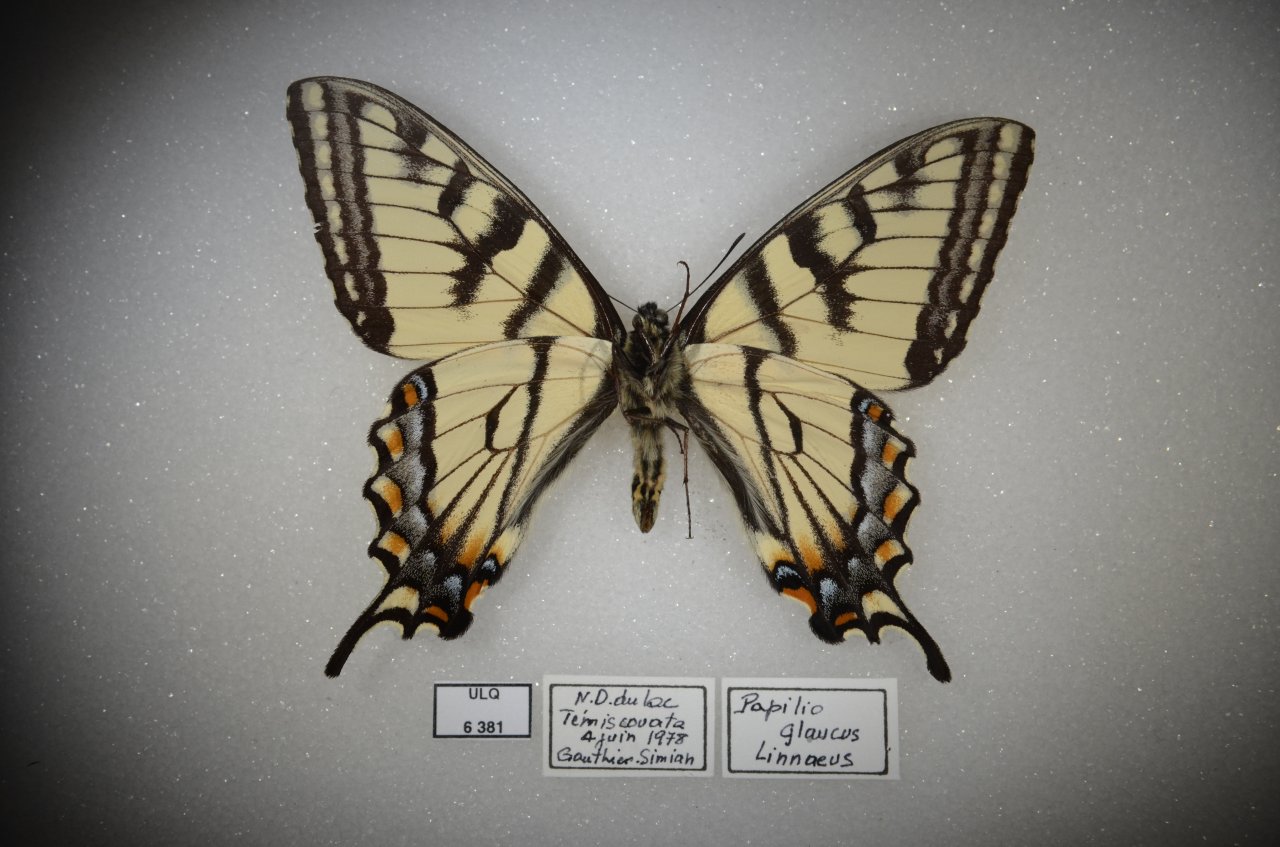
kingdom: Animalia
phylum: Arthropoda
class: Insecta
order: Lepidoptera
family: Papilionidae
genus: Pterourus
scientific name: Pterourus canadensis
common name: Canadian Tiger Swallowtail
